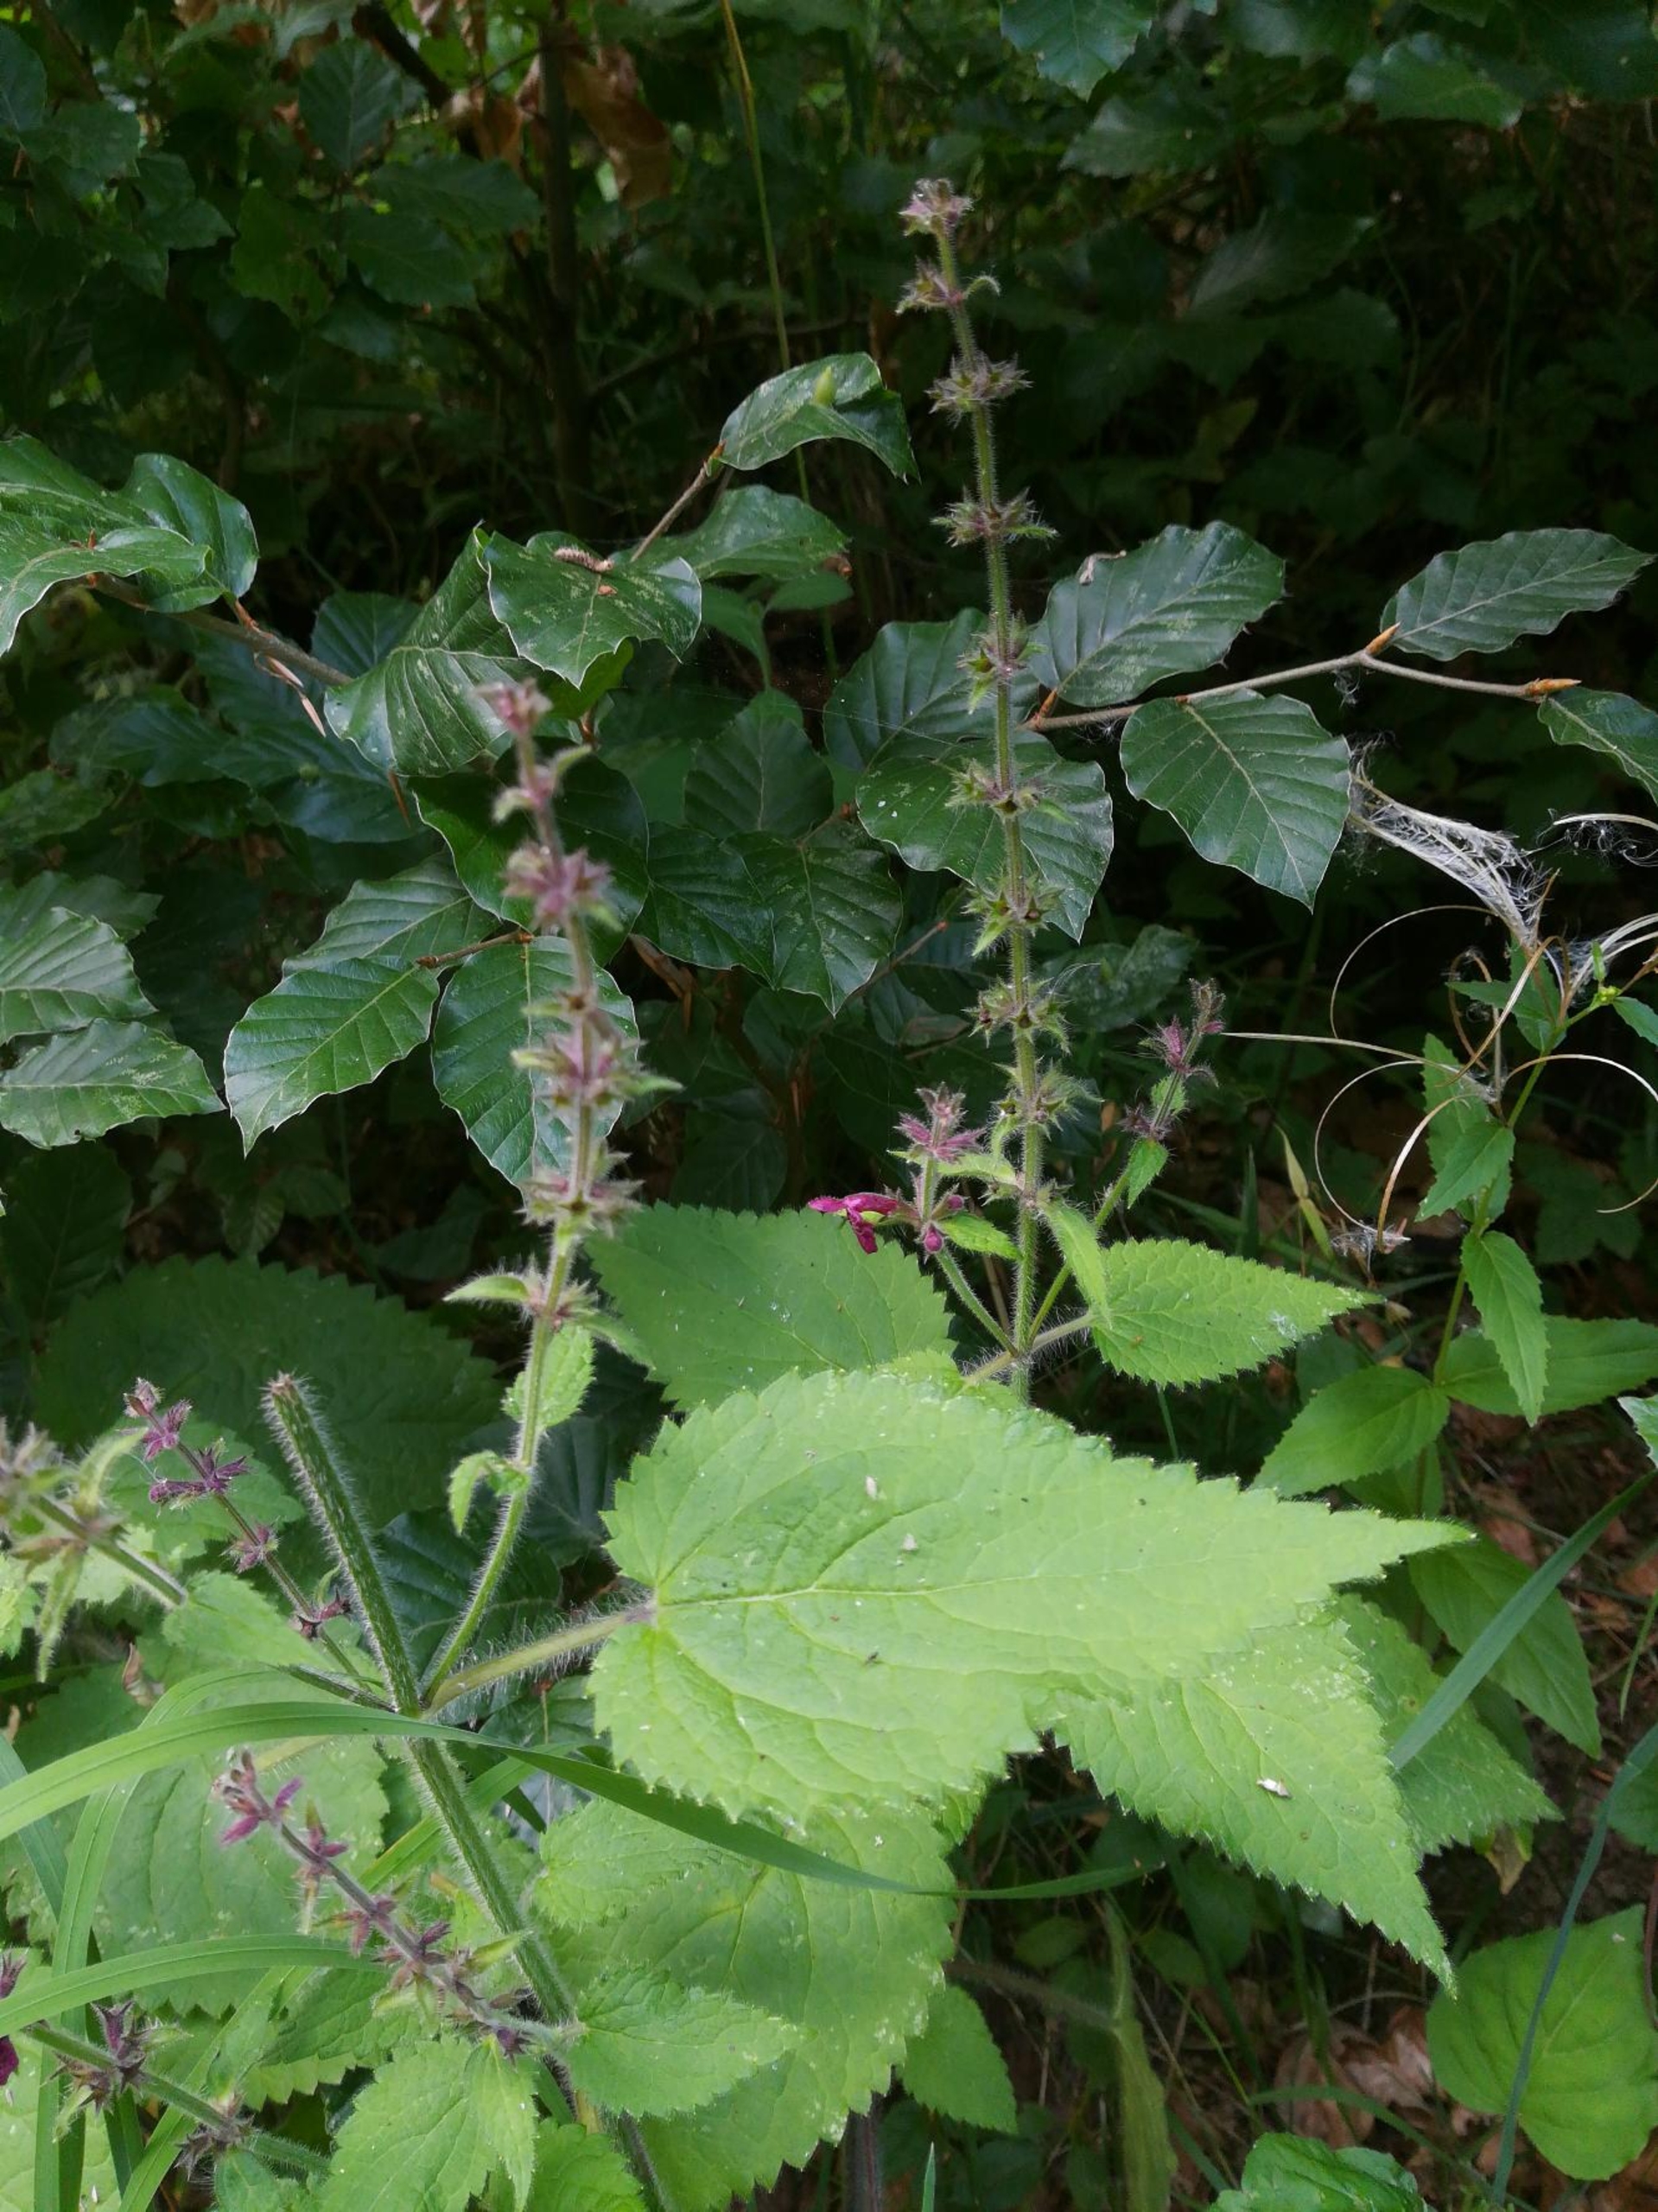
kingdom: Plantae
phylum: Tracheophyta
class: Magnoliopsida
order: Lamiales
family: Lamiaceae
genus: Stachys
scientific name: Stachys sylvatica
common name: Skov-galtetand
